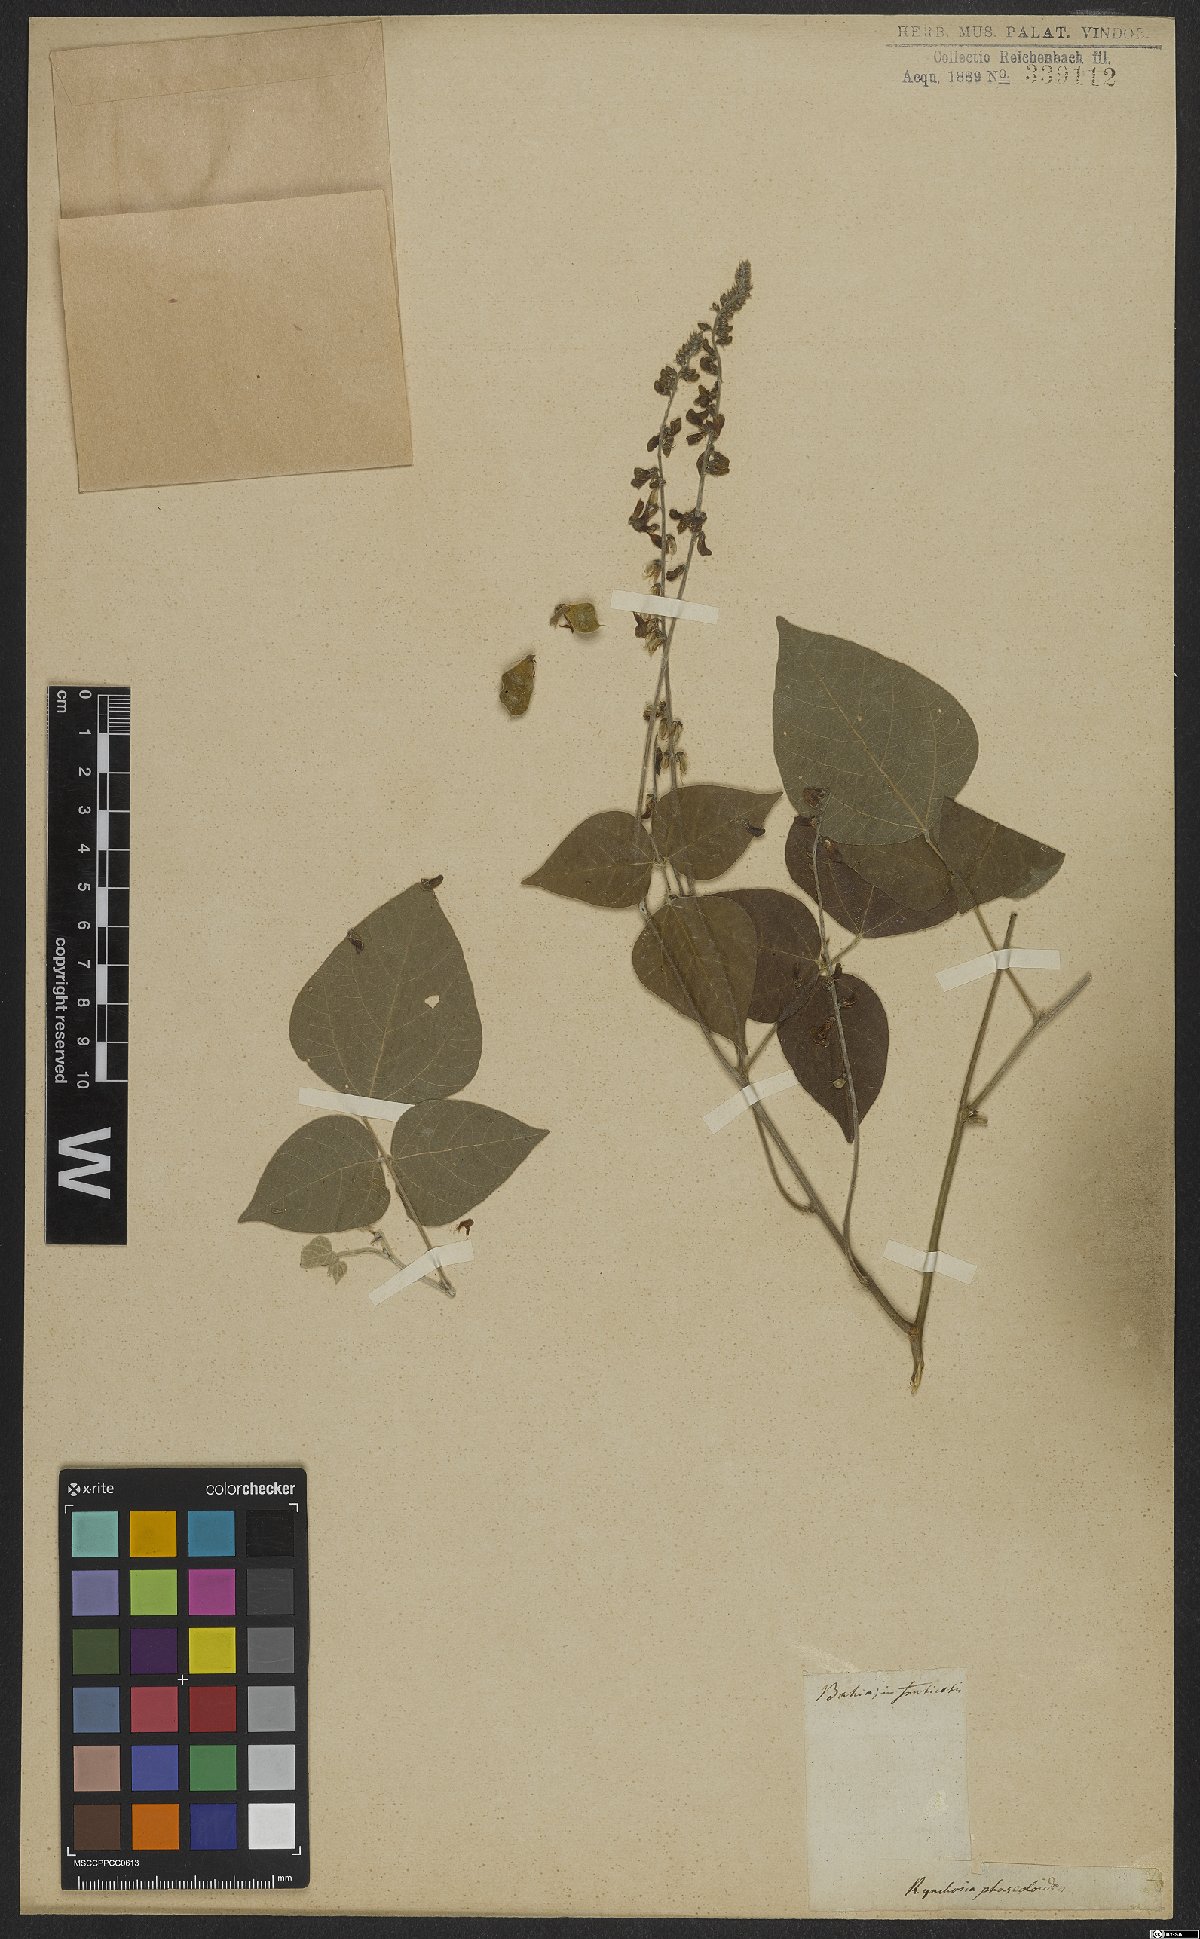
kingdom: Plantae
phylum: Tracheophyta
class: Magnoliopsida
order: Fabales
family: Fabaceae
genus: Rhynchosia
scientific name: Rhynchosia phaseoloides
